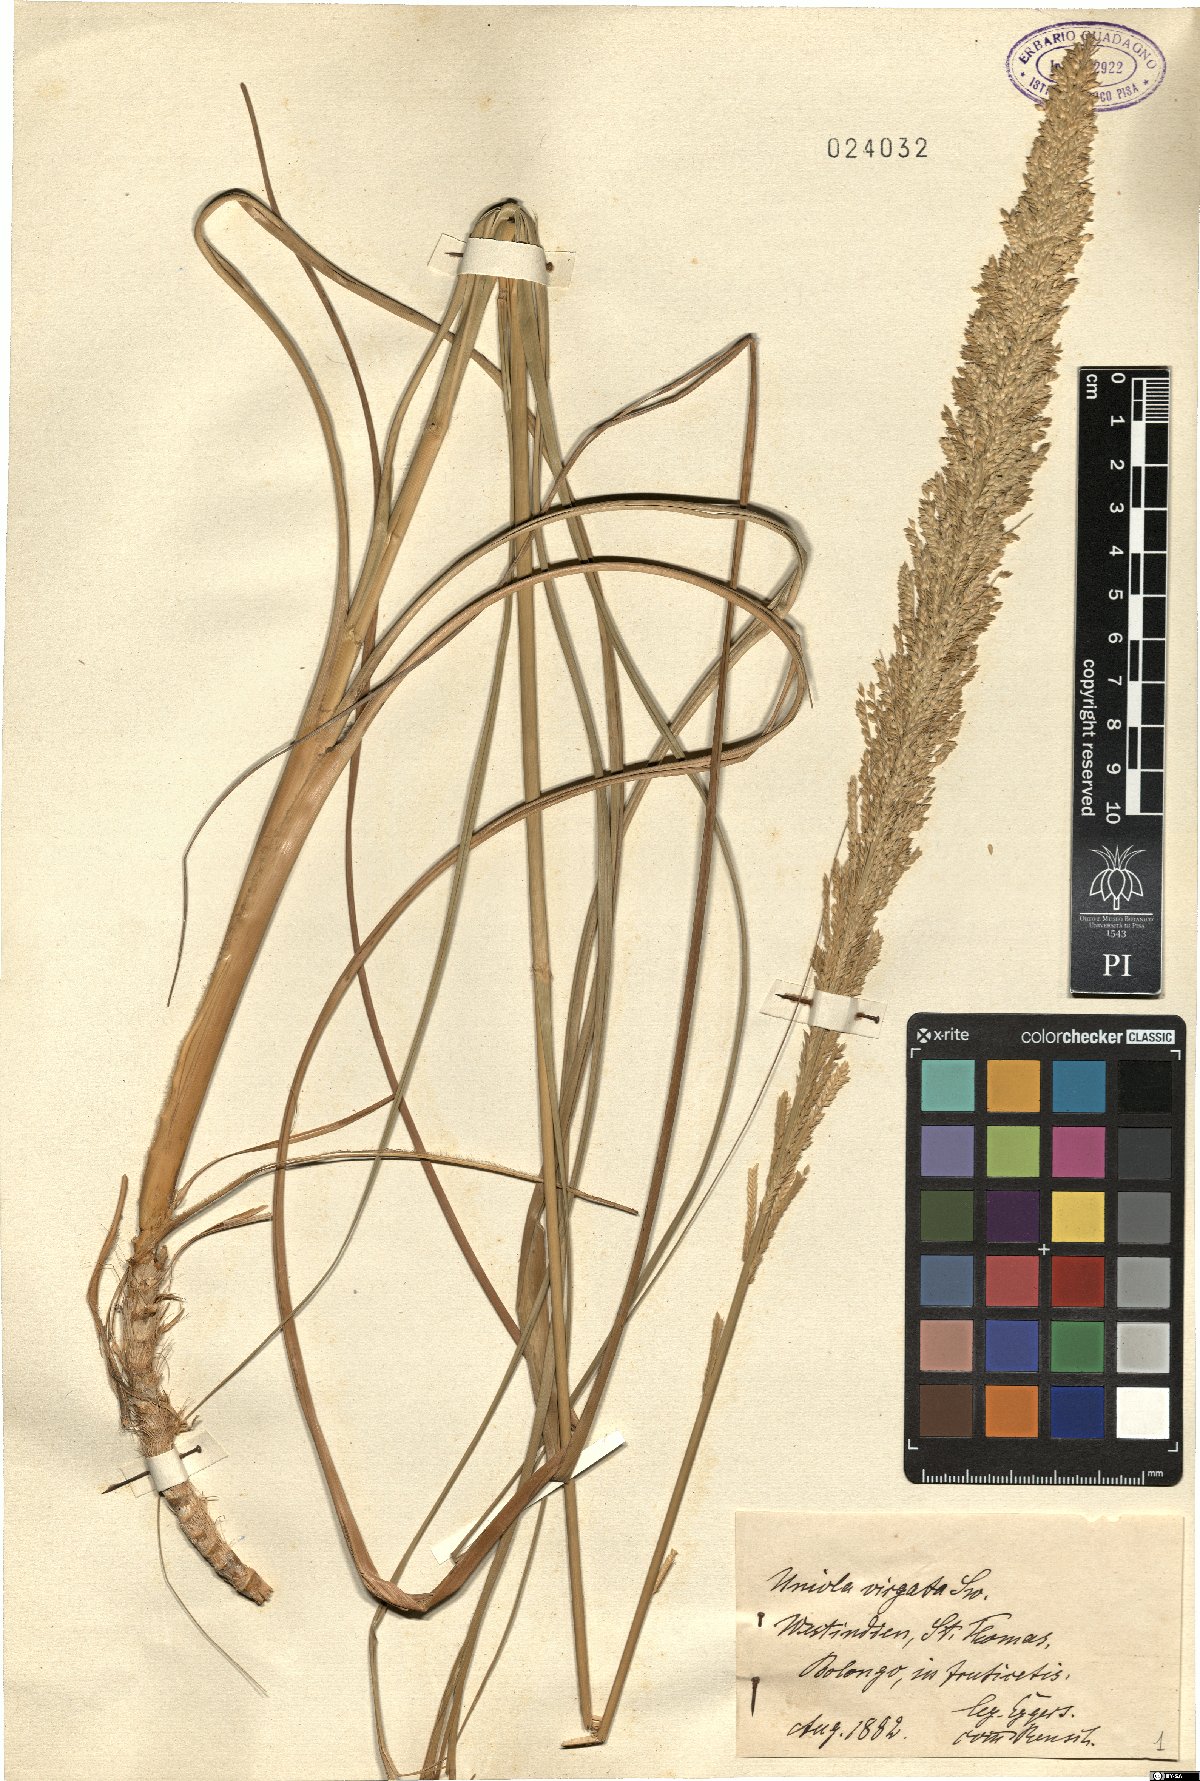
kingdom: Plantae
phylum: Tracheophyta
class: Liliopsida
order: Poales
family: Poaceae
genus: Uniola
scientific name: Uniola virgata
